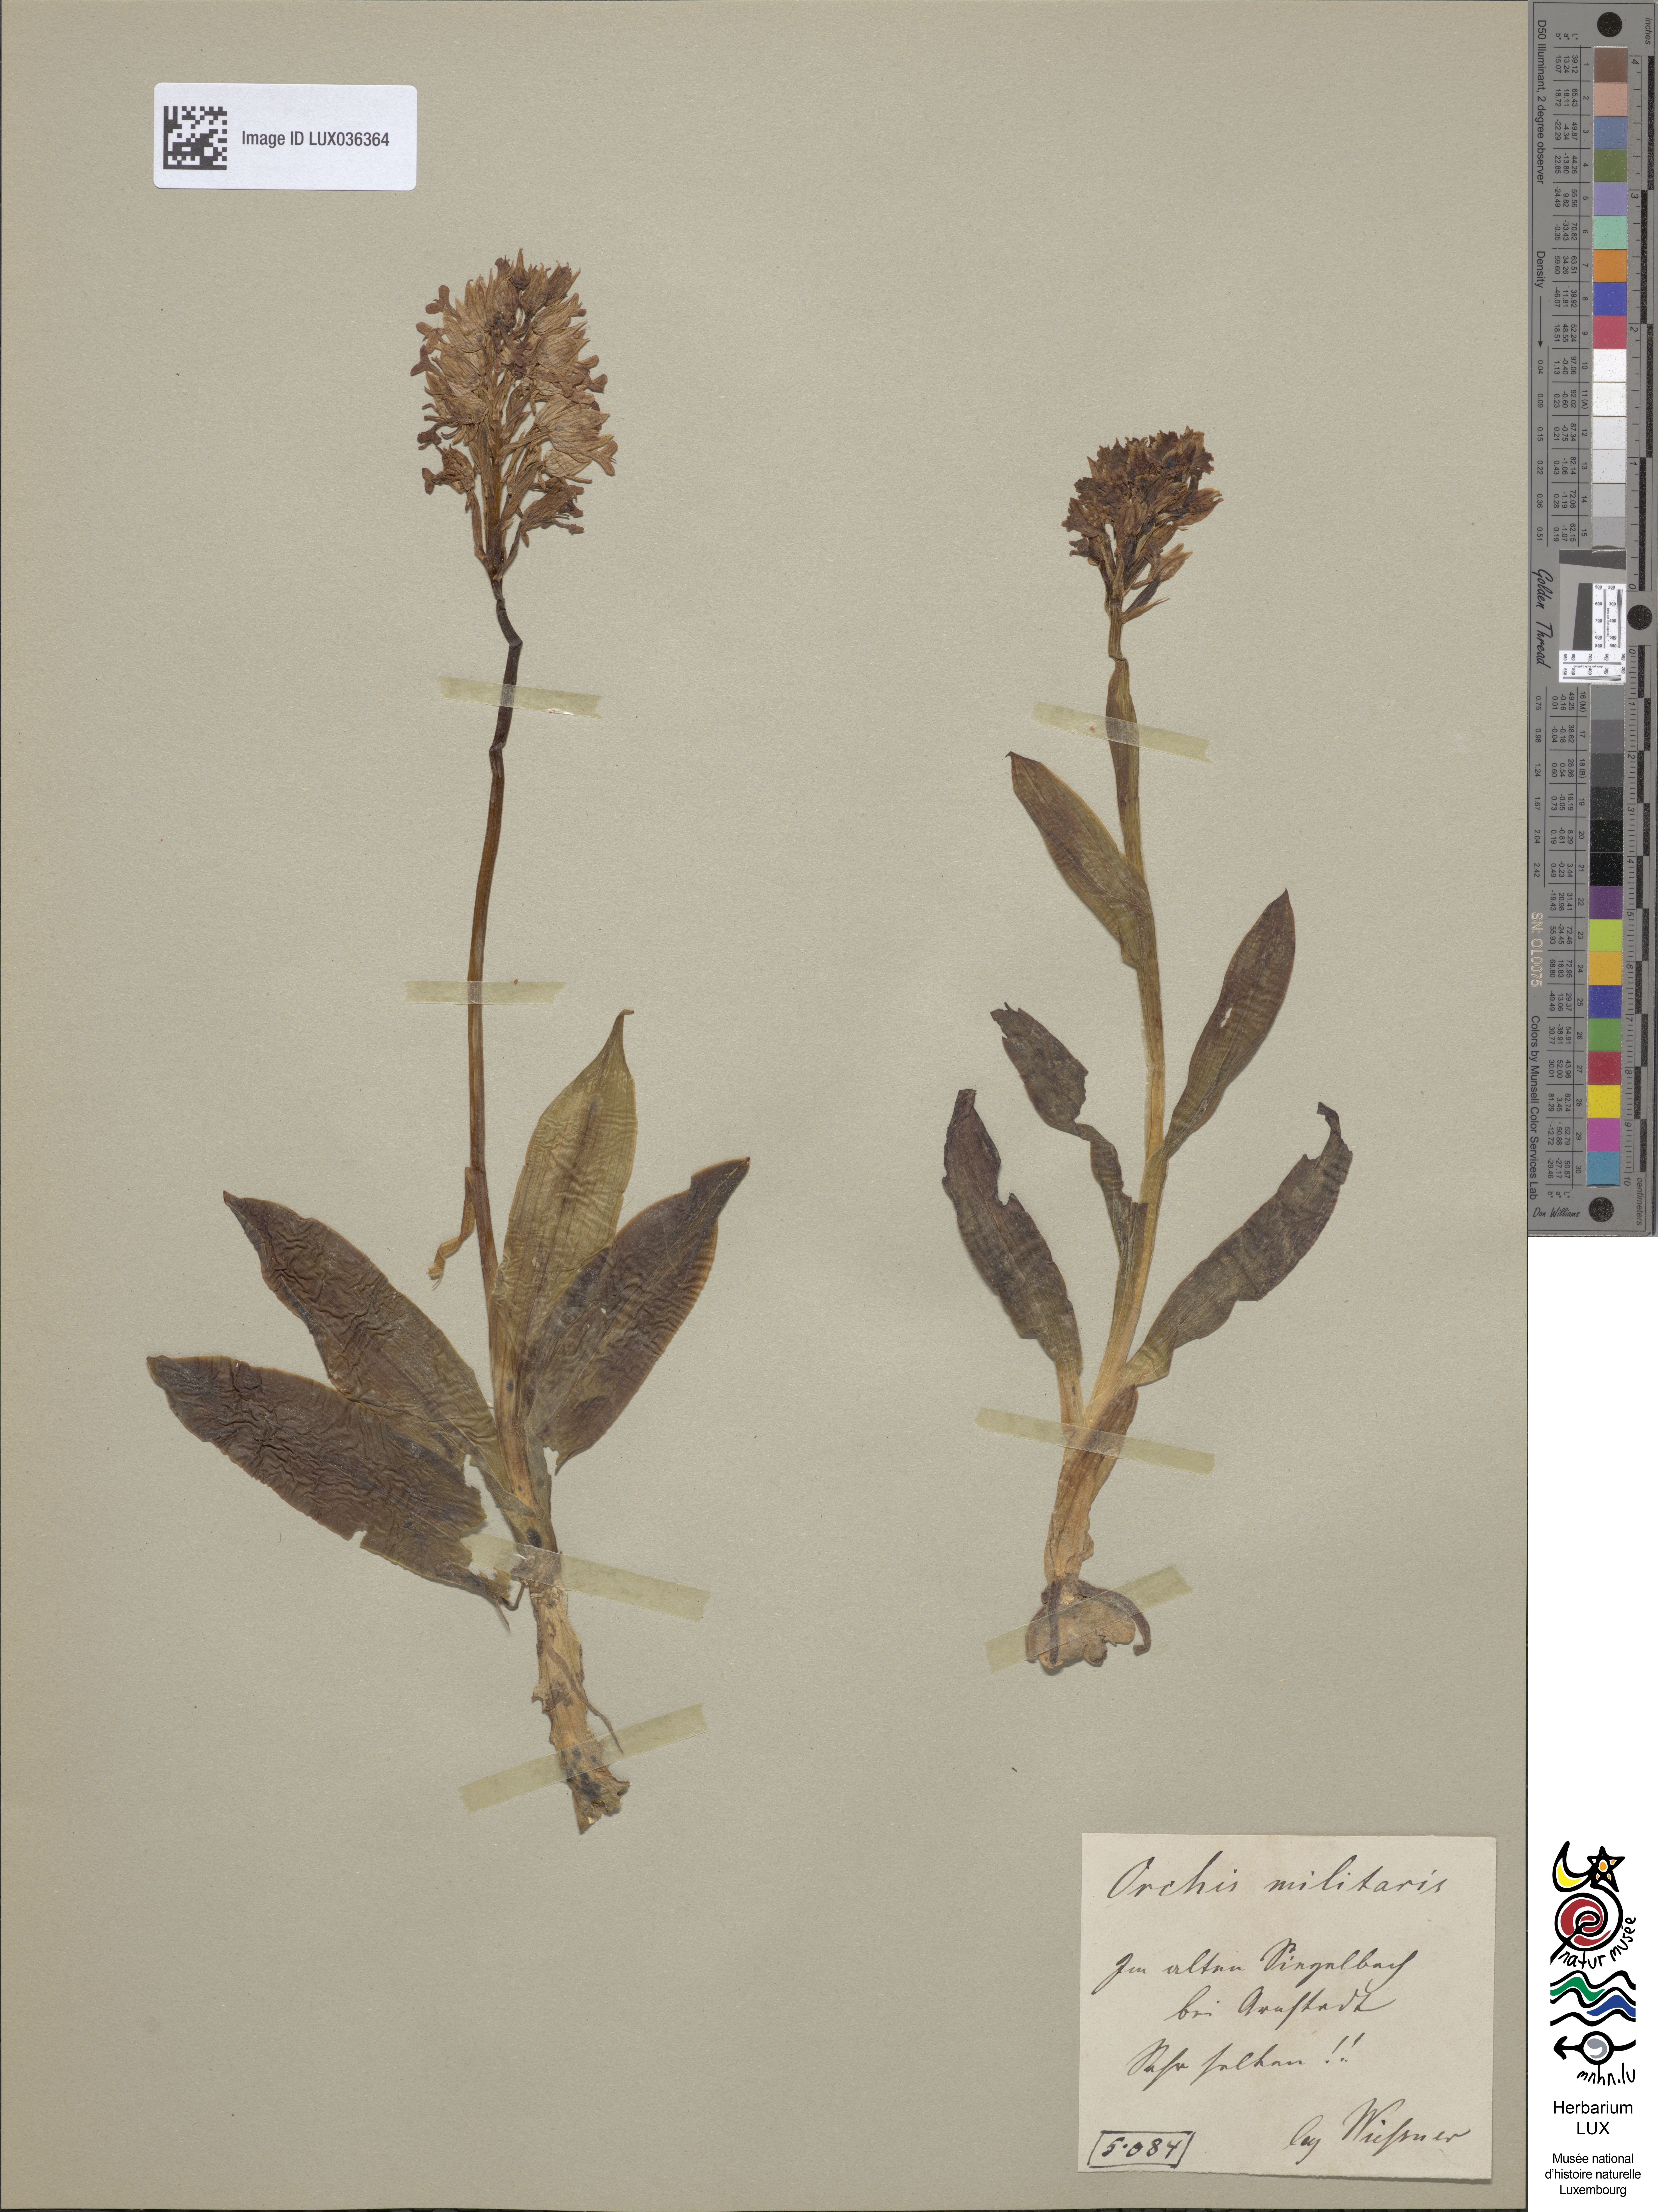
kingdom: Plantae
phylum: Tracheophyta
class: Liliopsida
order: Asparagales
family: Orchidaceae
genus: Orchis
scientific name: Orchis militaris
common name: Military orchid
